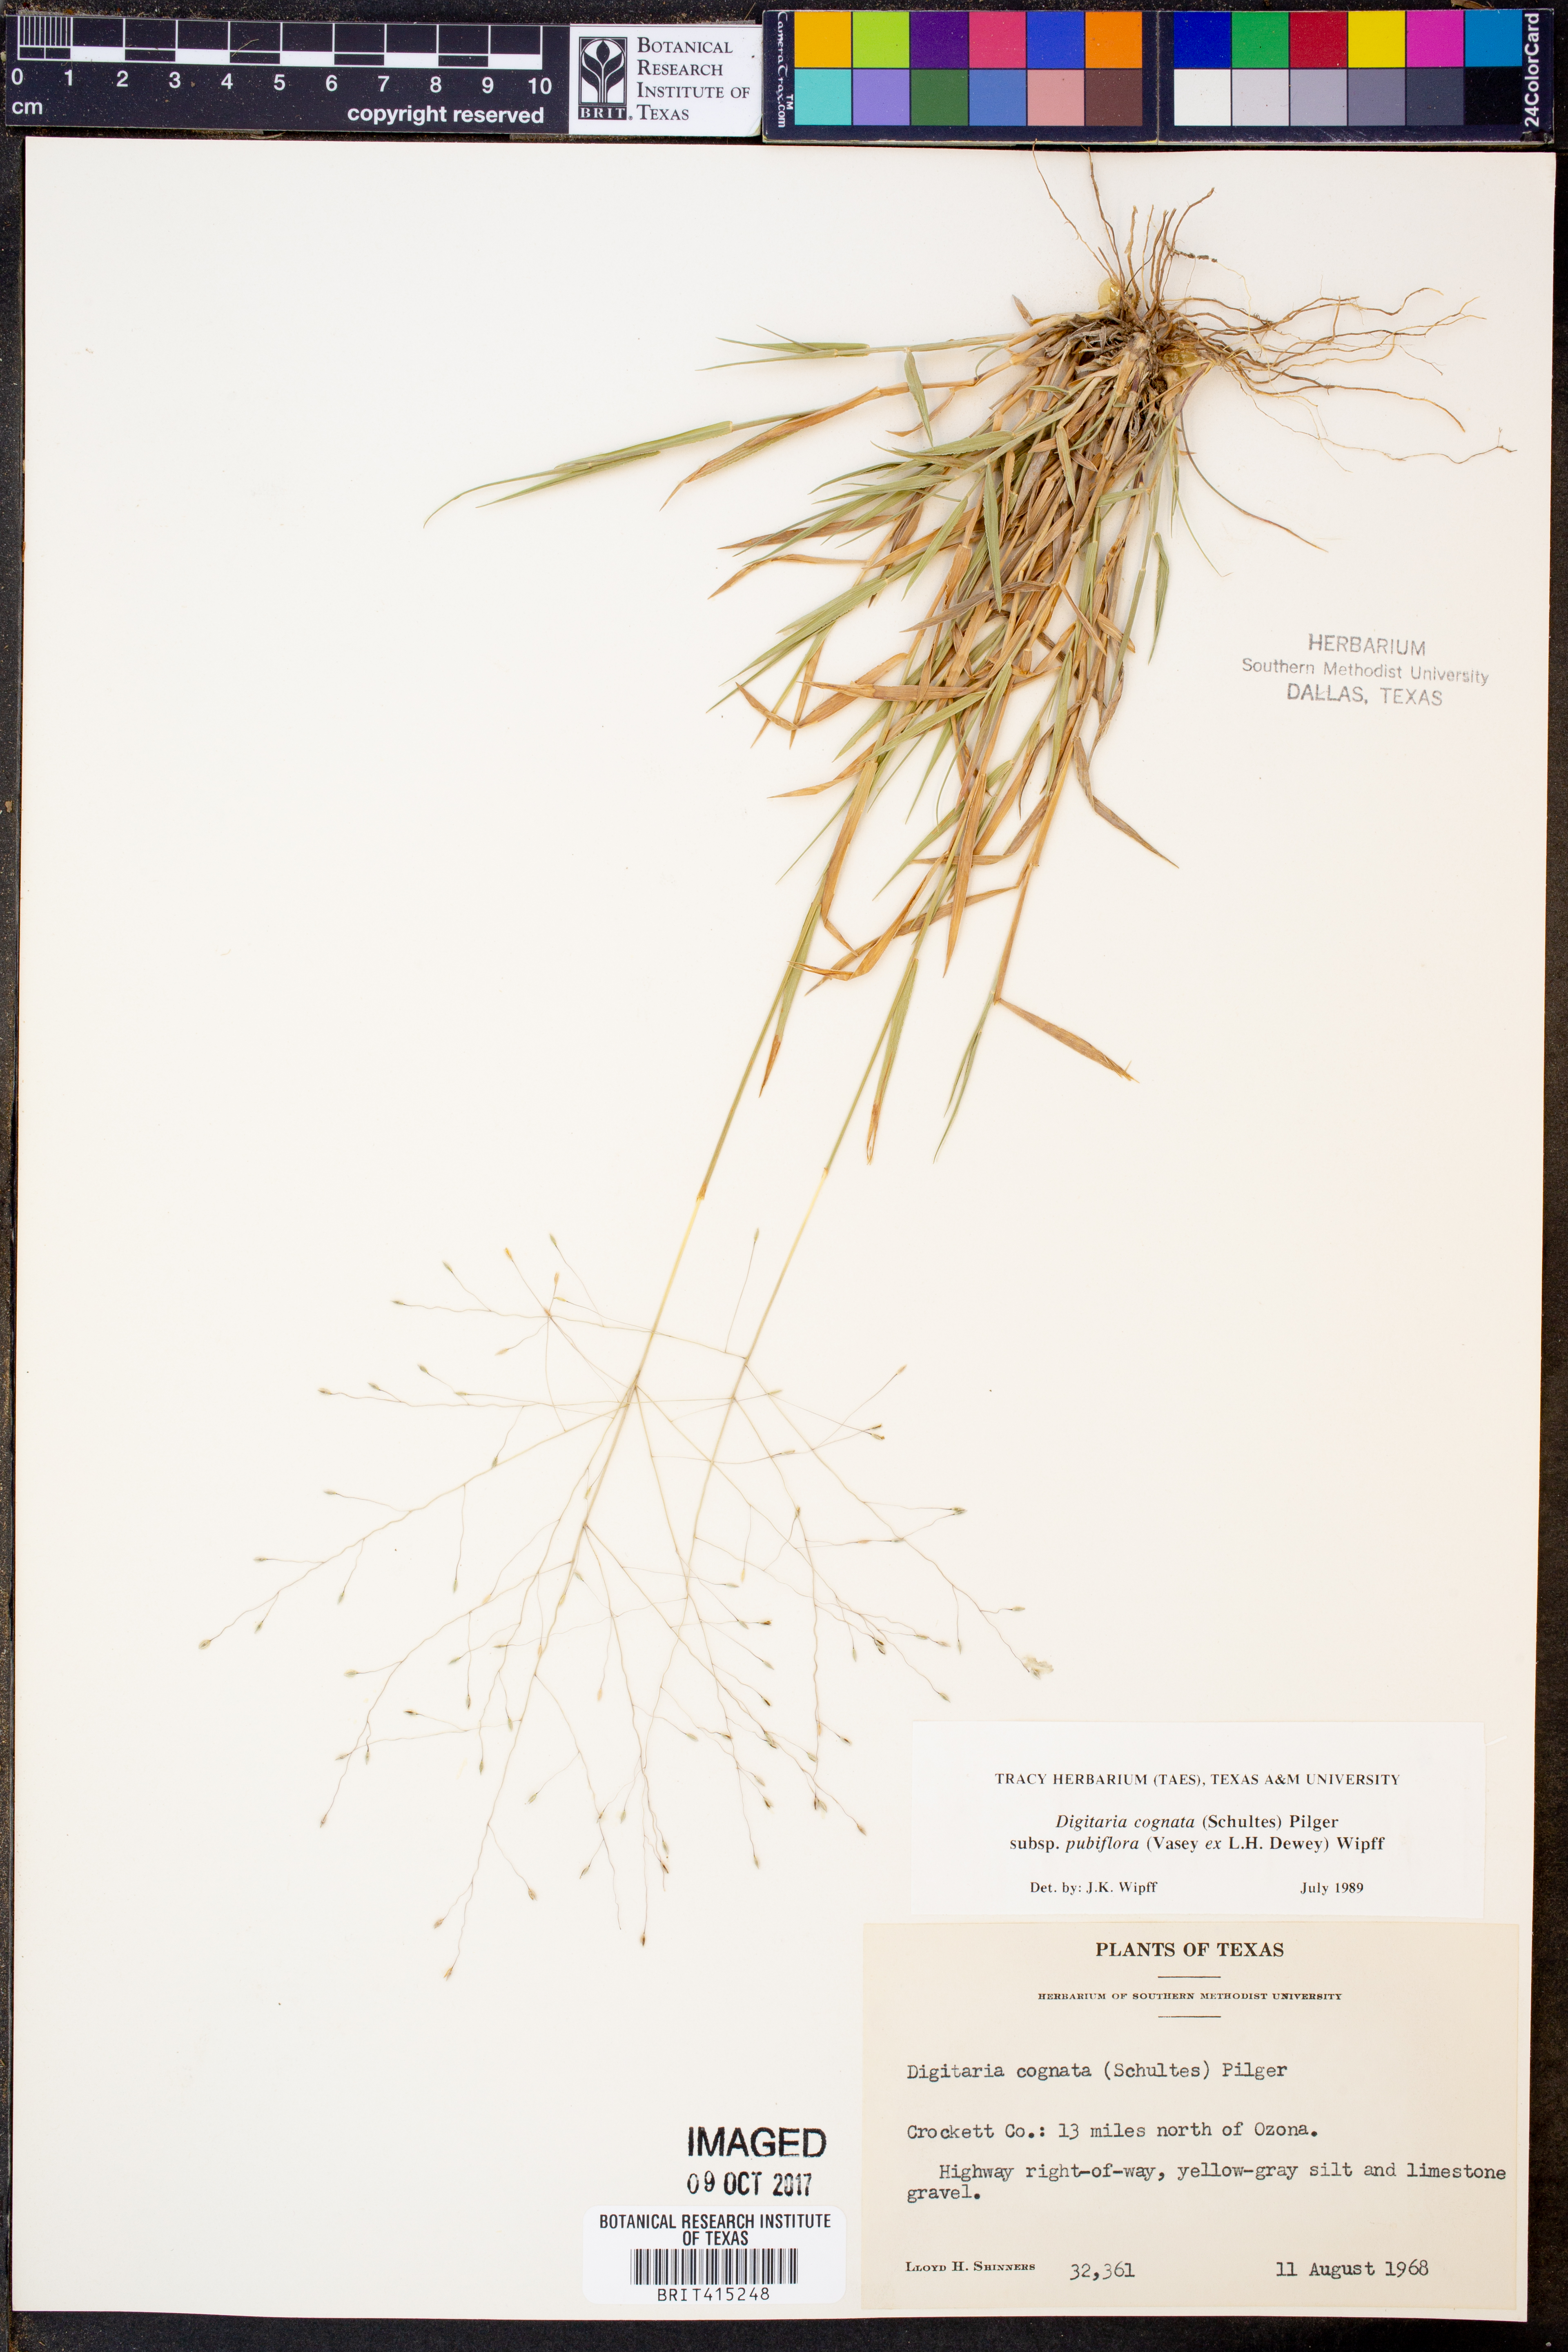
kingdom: Plantae
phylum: Tracheophyta
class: Liliopsida
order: Poales
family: Poaceae
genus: Digitaria
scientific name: Digitaria cognata
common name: Fall witchgrass
